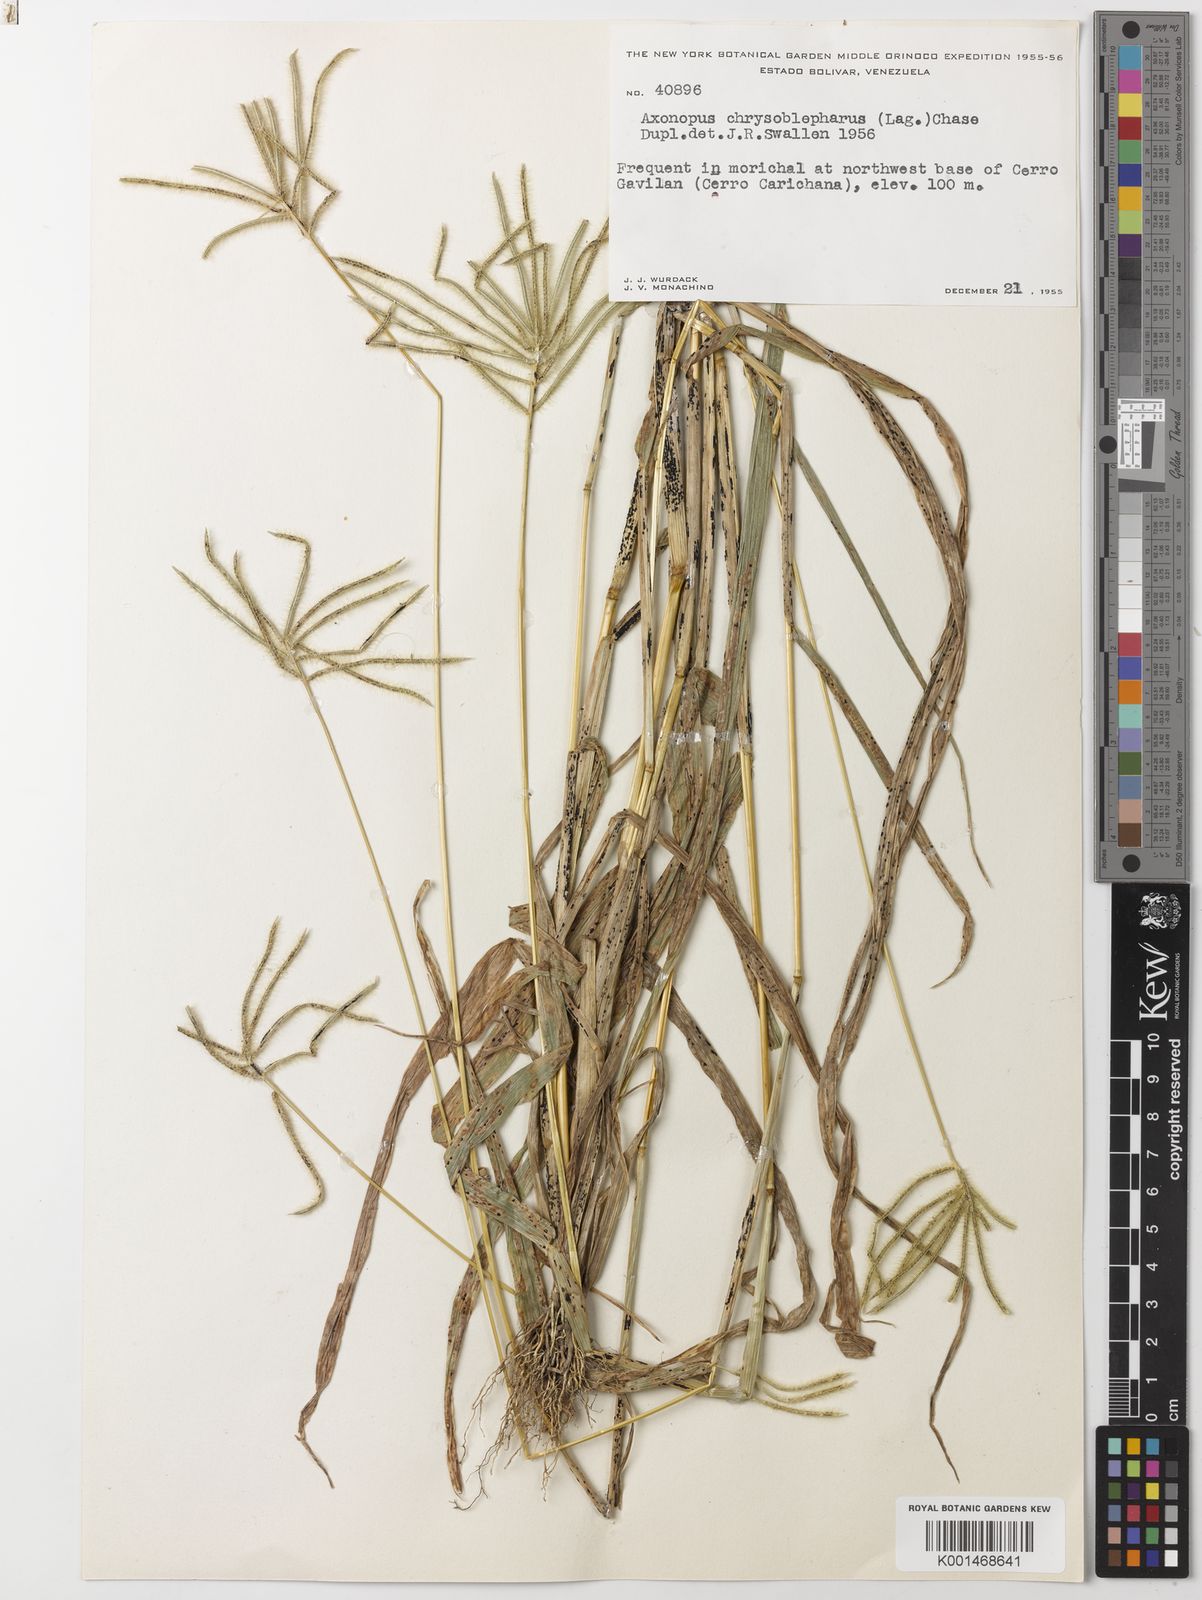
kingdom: Plantae
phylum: Tracheophyta
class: Liliopsida
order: Poales
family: Poaceae
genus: Axonopus
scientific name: Axonopus chrysoblepharis
